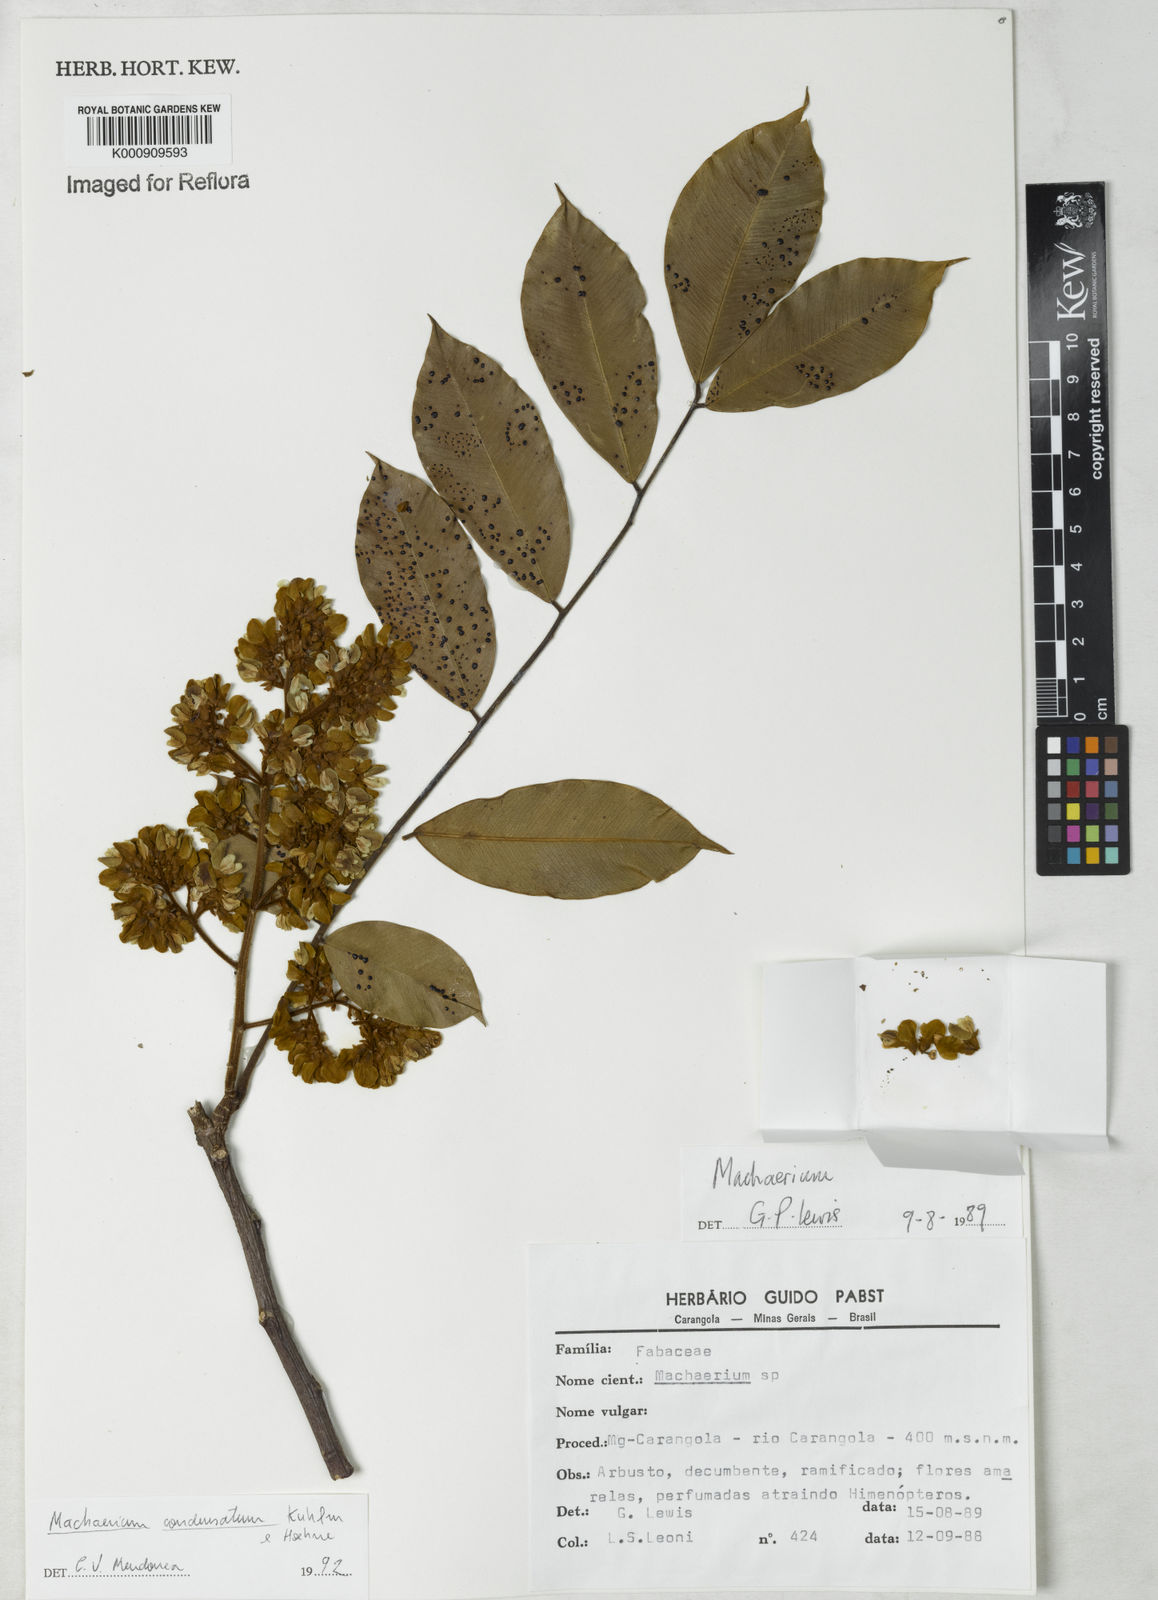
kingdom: Plantae
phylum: Tracheophyta
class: Magnoliopsida
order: Fabales
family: Fabaceae
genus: Machaerium
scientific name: Machaerium condensatum
